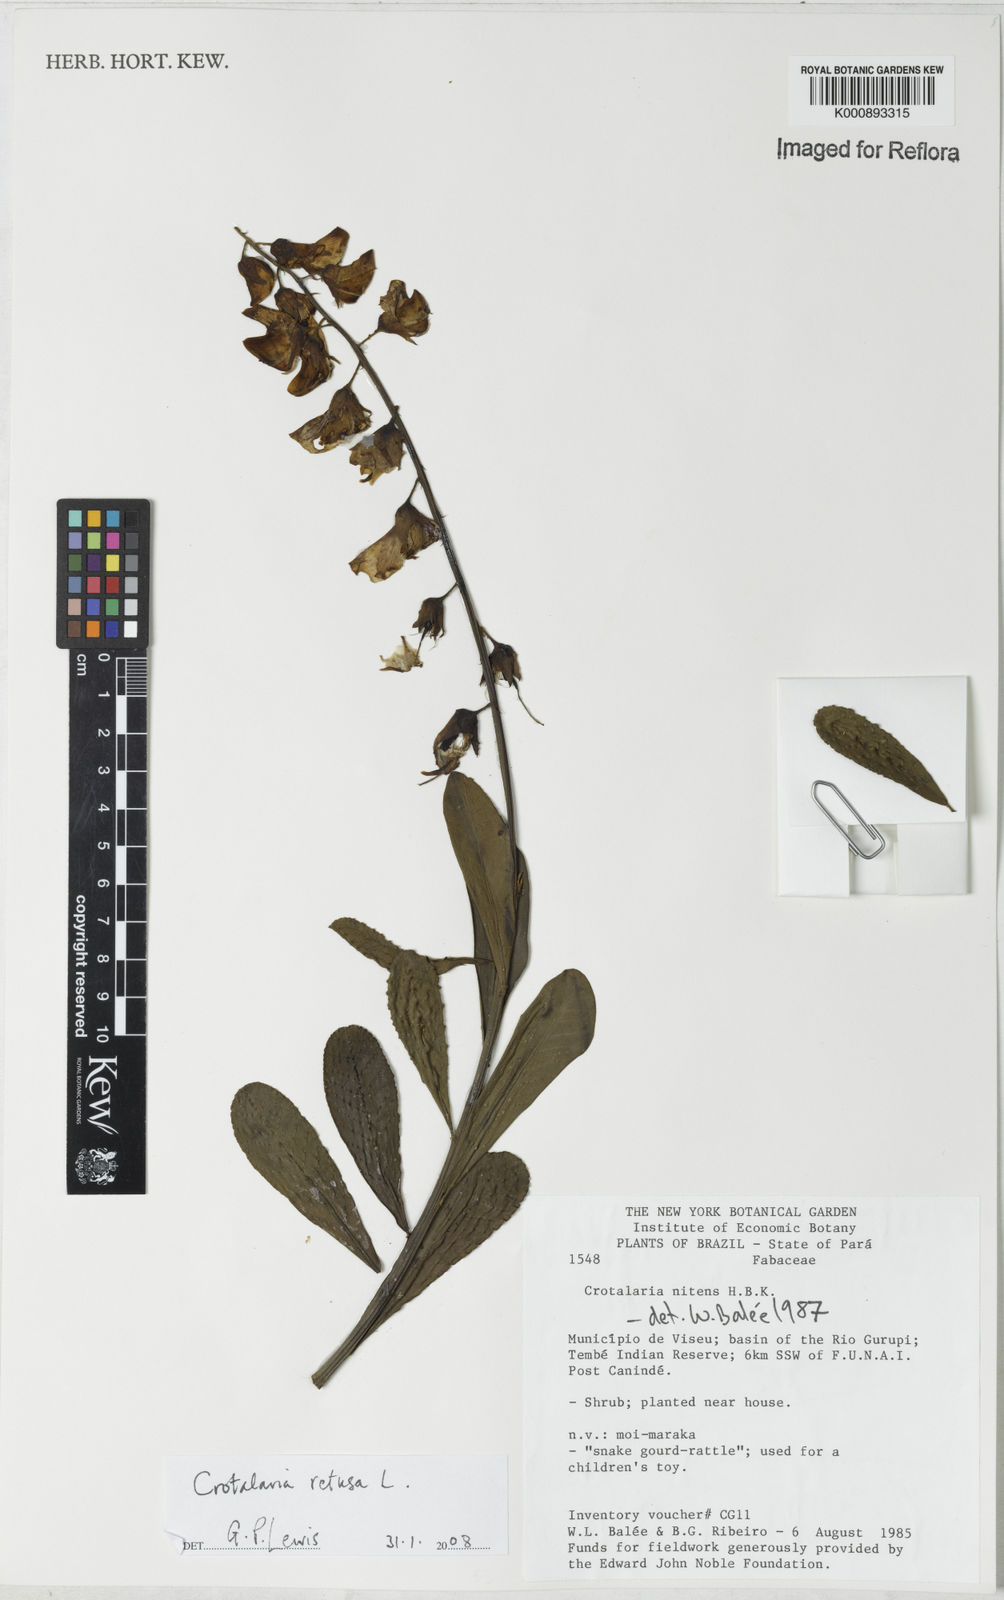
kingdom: Plantae
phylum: Tracheophyta
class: Magnoliopsida
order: Fabales
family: Fabaceae
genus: Crotalaria
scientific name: Crotalaria retusa
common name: Rattleweed
